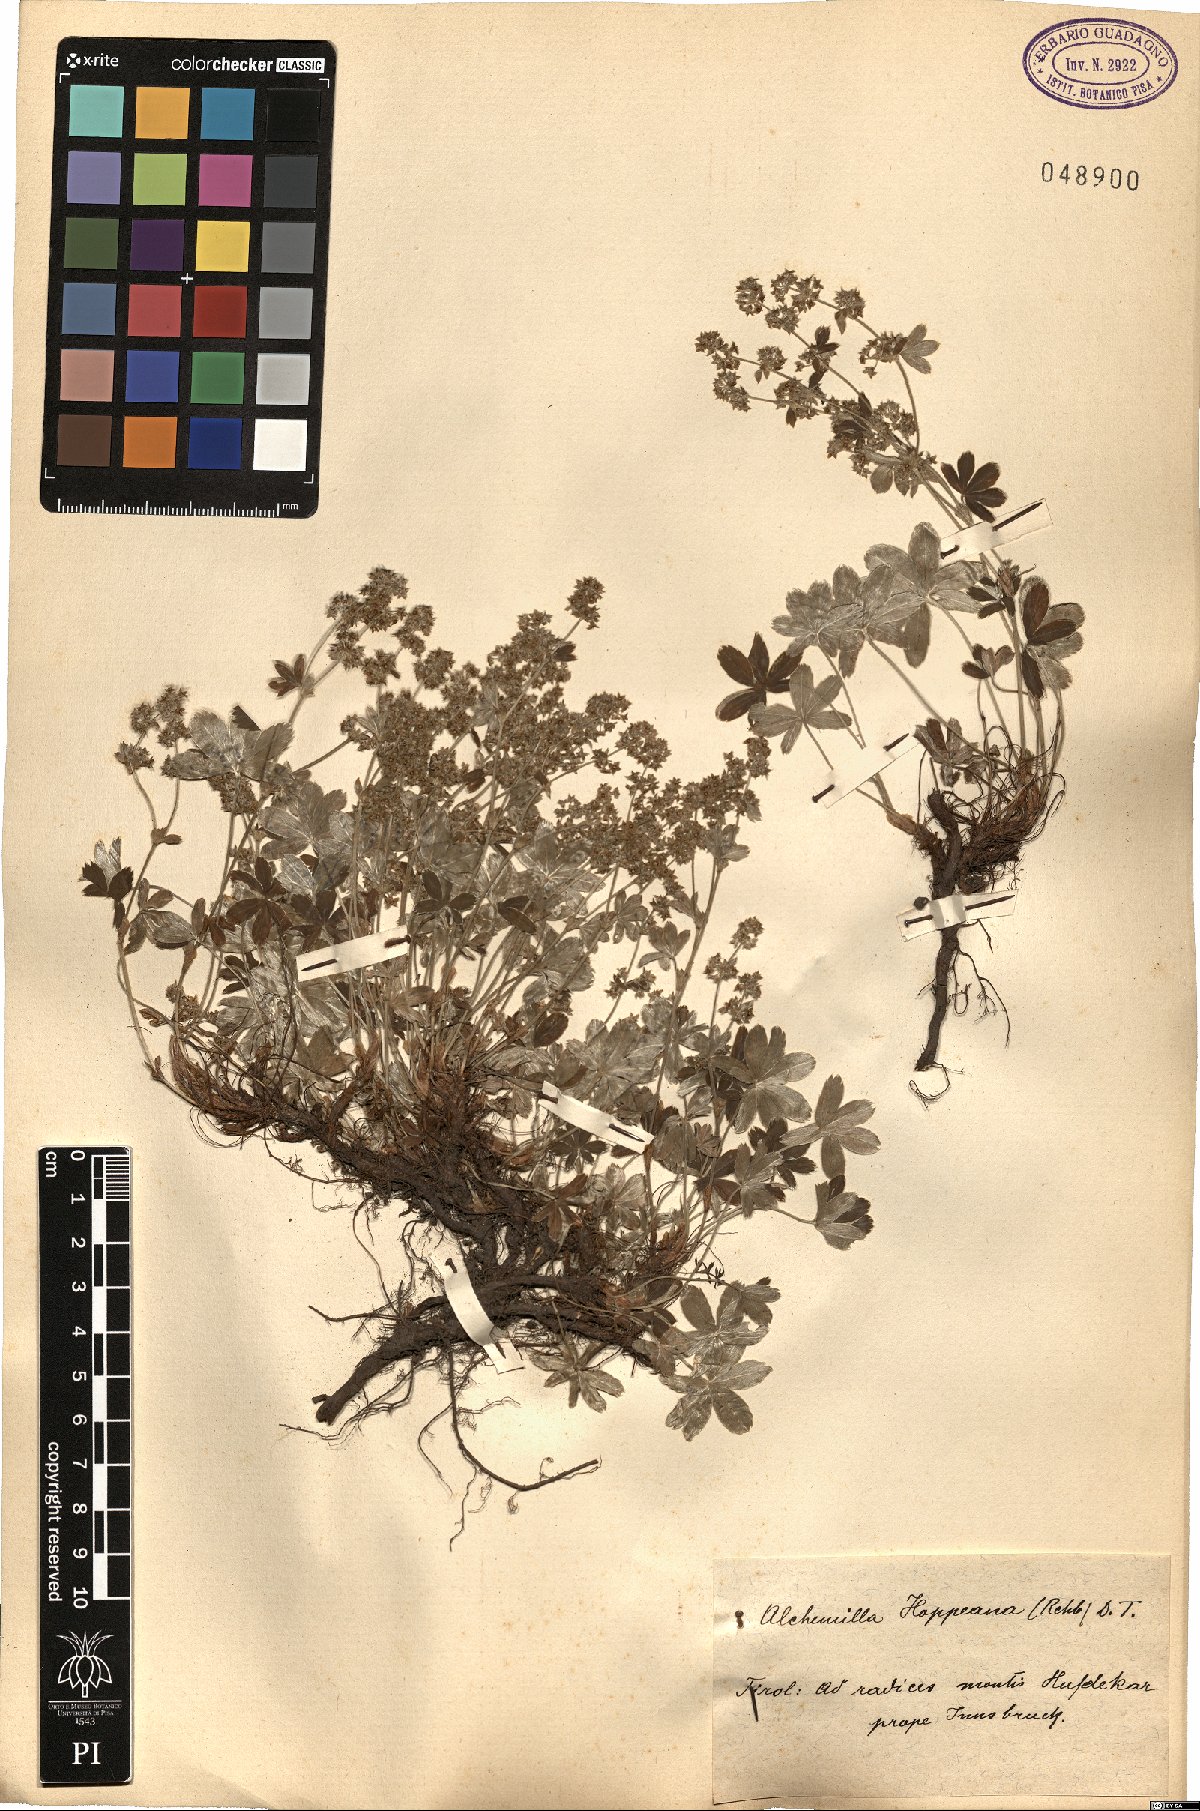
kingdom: Plantae
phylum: Tracheophyta
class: Magnoliopsida
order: Rosales
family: Rosaceae
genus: Alchemilla
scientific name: Alchemilla hoppeana
